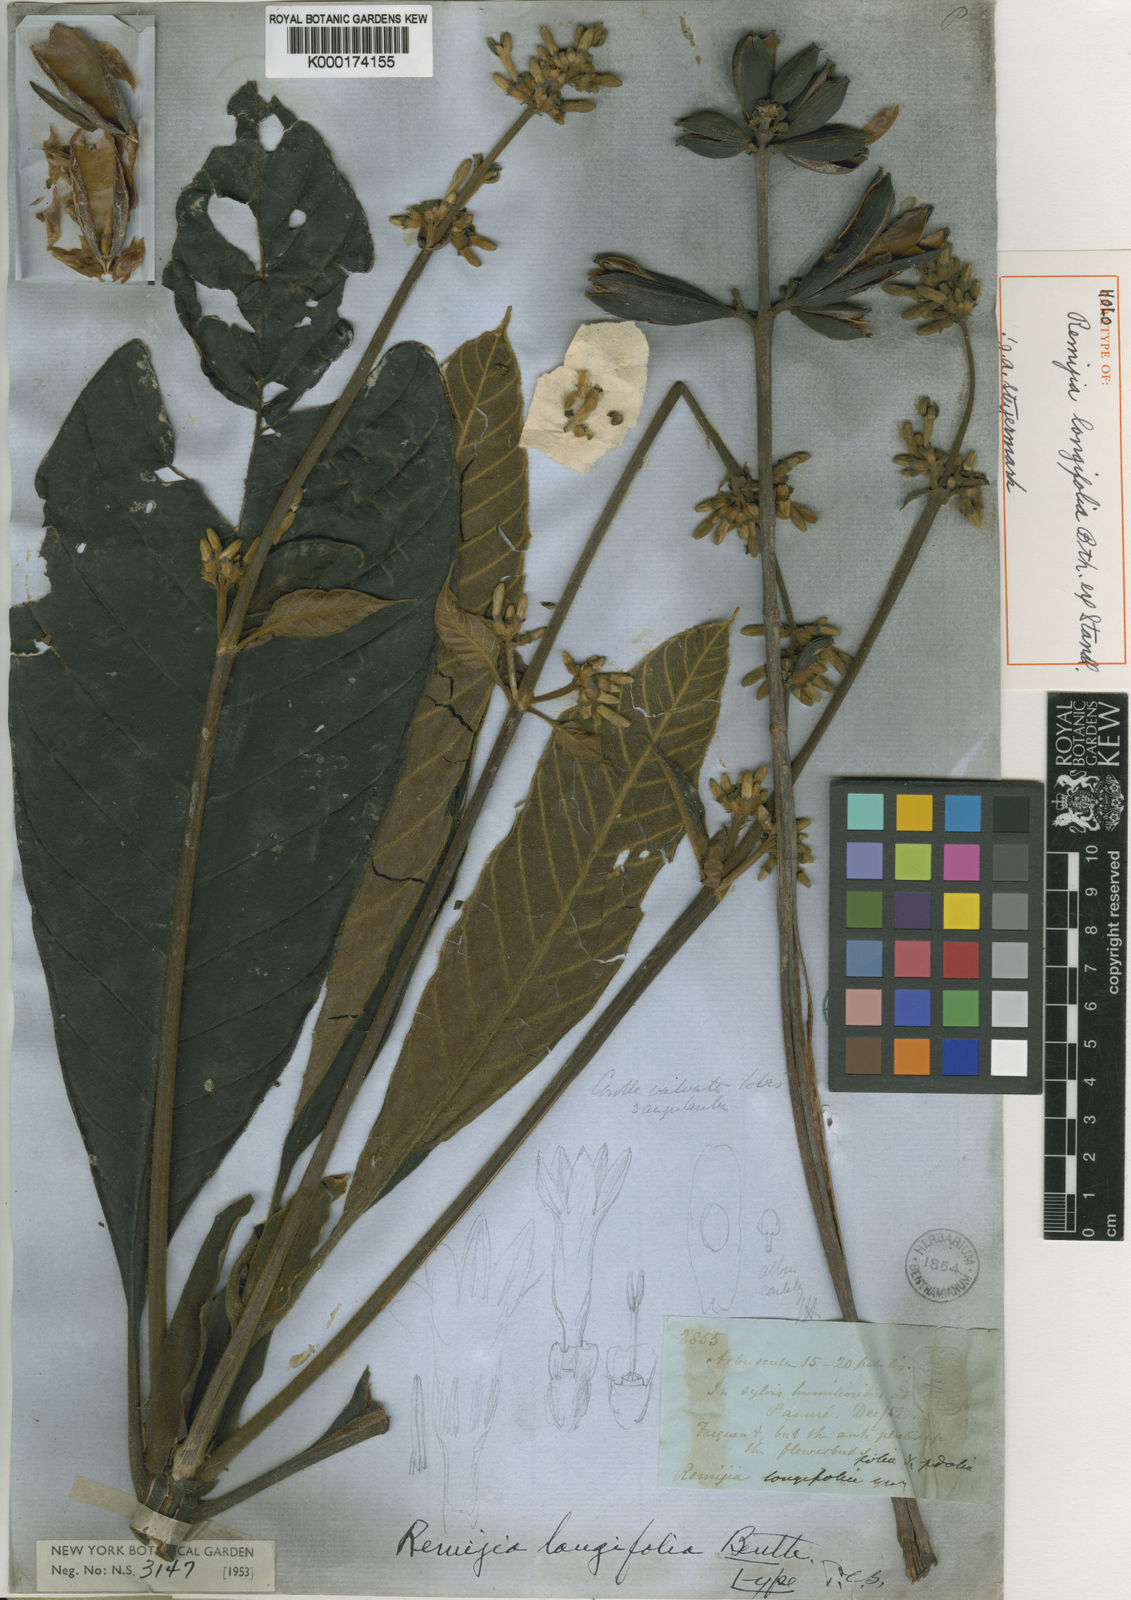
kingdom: Plantae
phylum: Tracheophyta
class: Magnoliopsida
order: Gentianales
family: Rubiaceae
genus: Remijia
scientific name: Remijia longifolia
